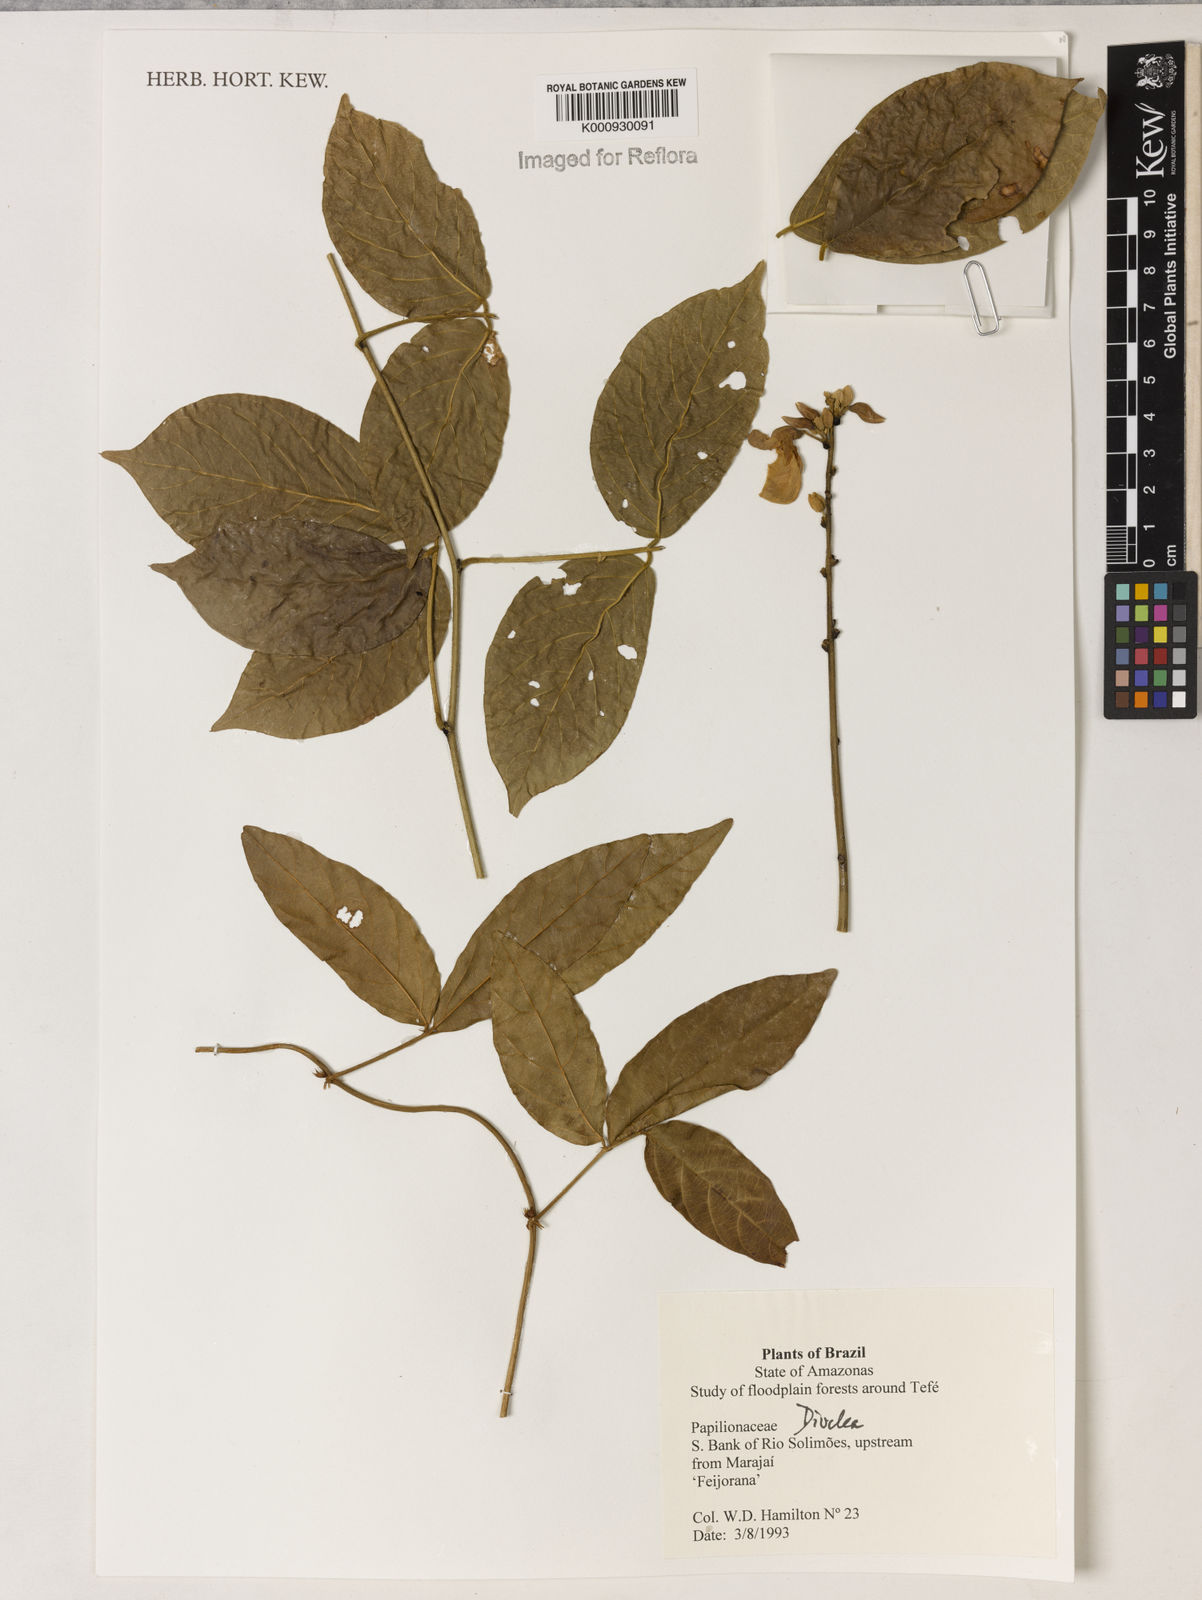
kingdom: Plantae
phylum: Tracheophyta
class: Magnoliopsida
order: Fabales
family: Fabaceae
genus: Dioclea
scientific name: Dioclea
